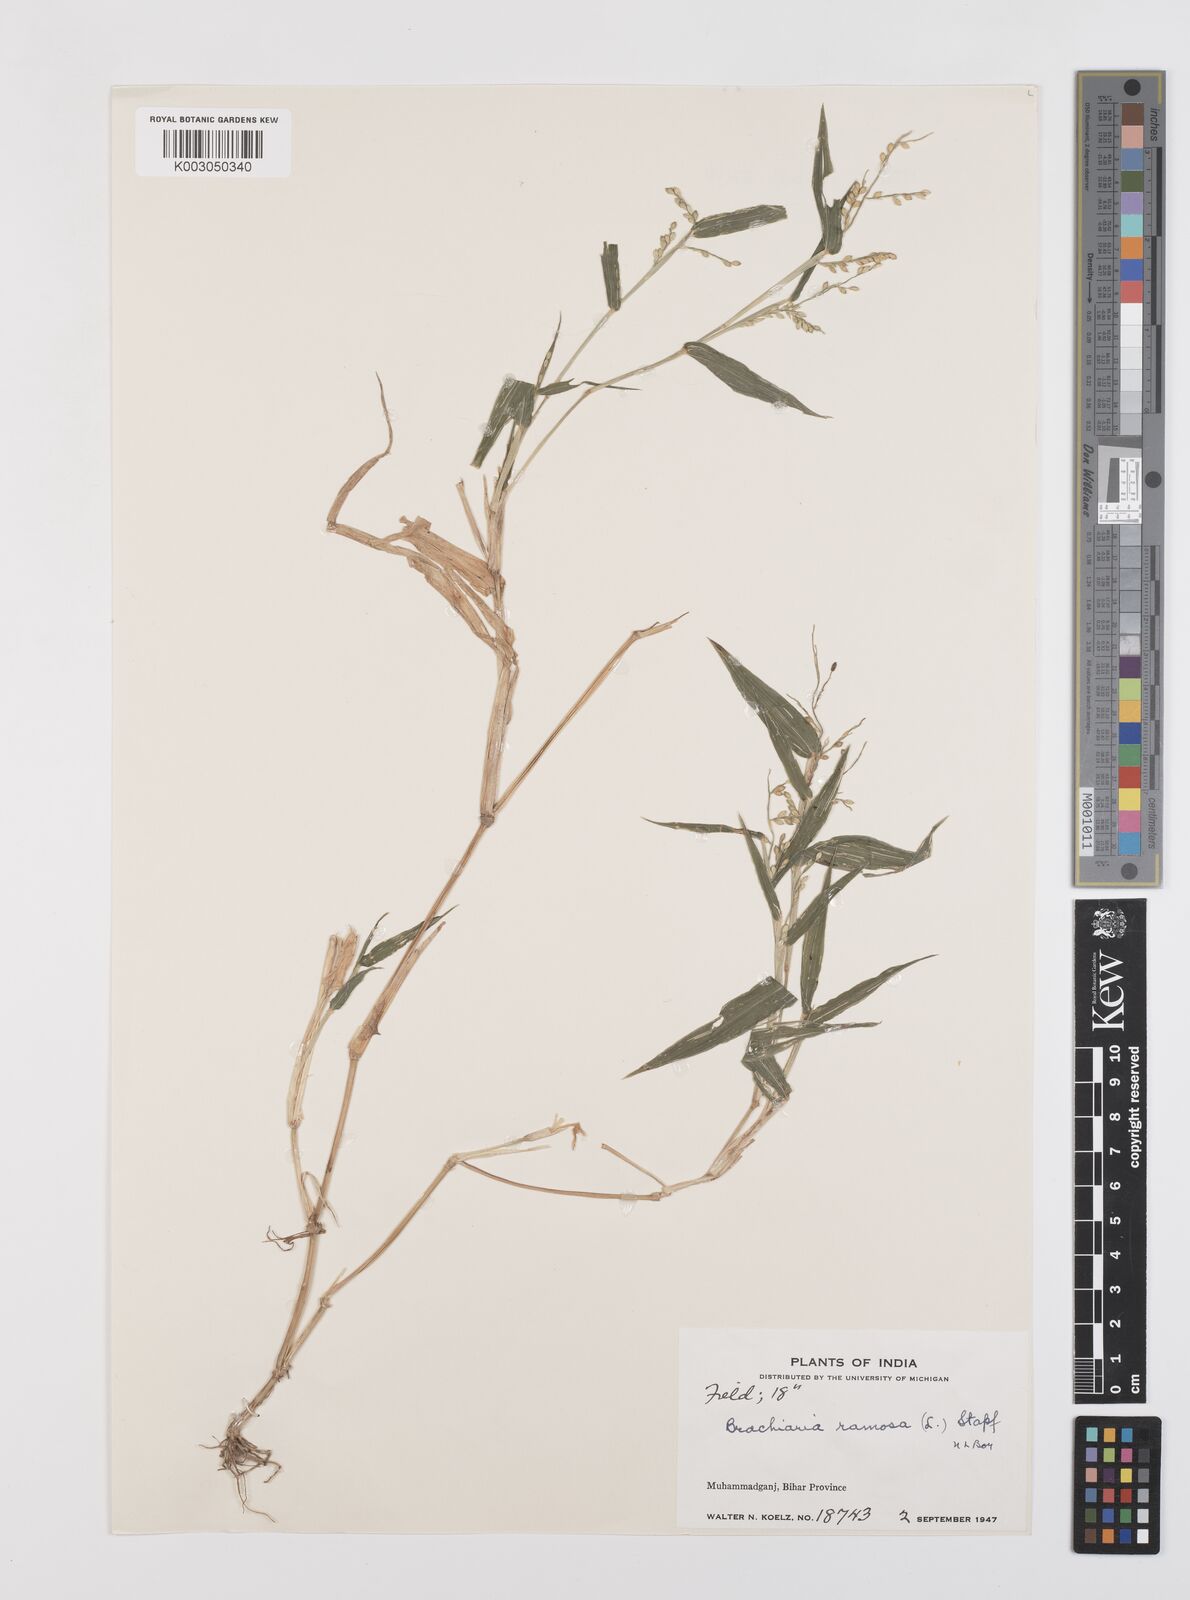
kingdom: Plantae
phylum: Tracheophyta
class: Liliopsida
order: Poales
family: Poaceae
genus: Urochloa
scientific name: Urochloa ramosa
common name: Browntop millet
